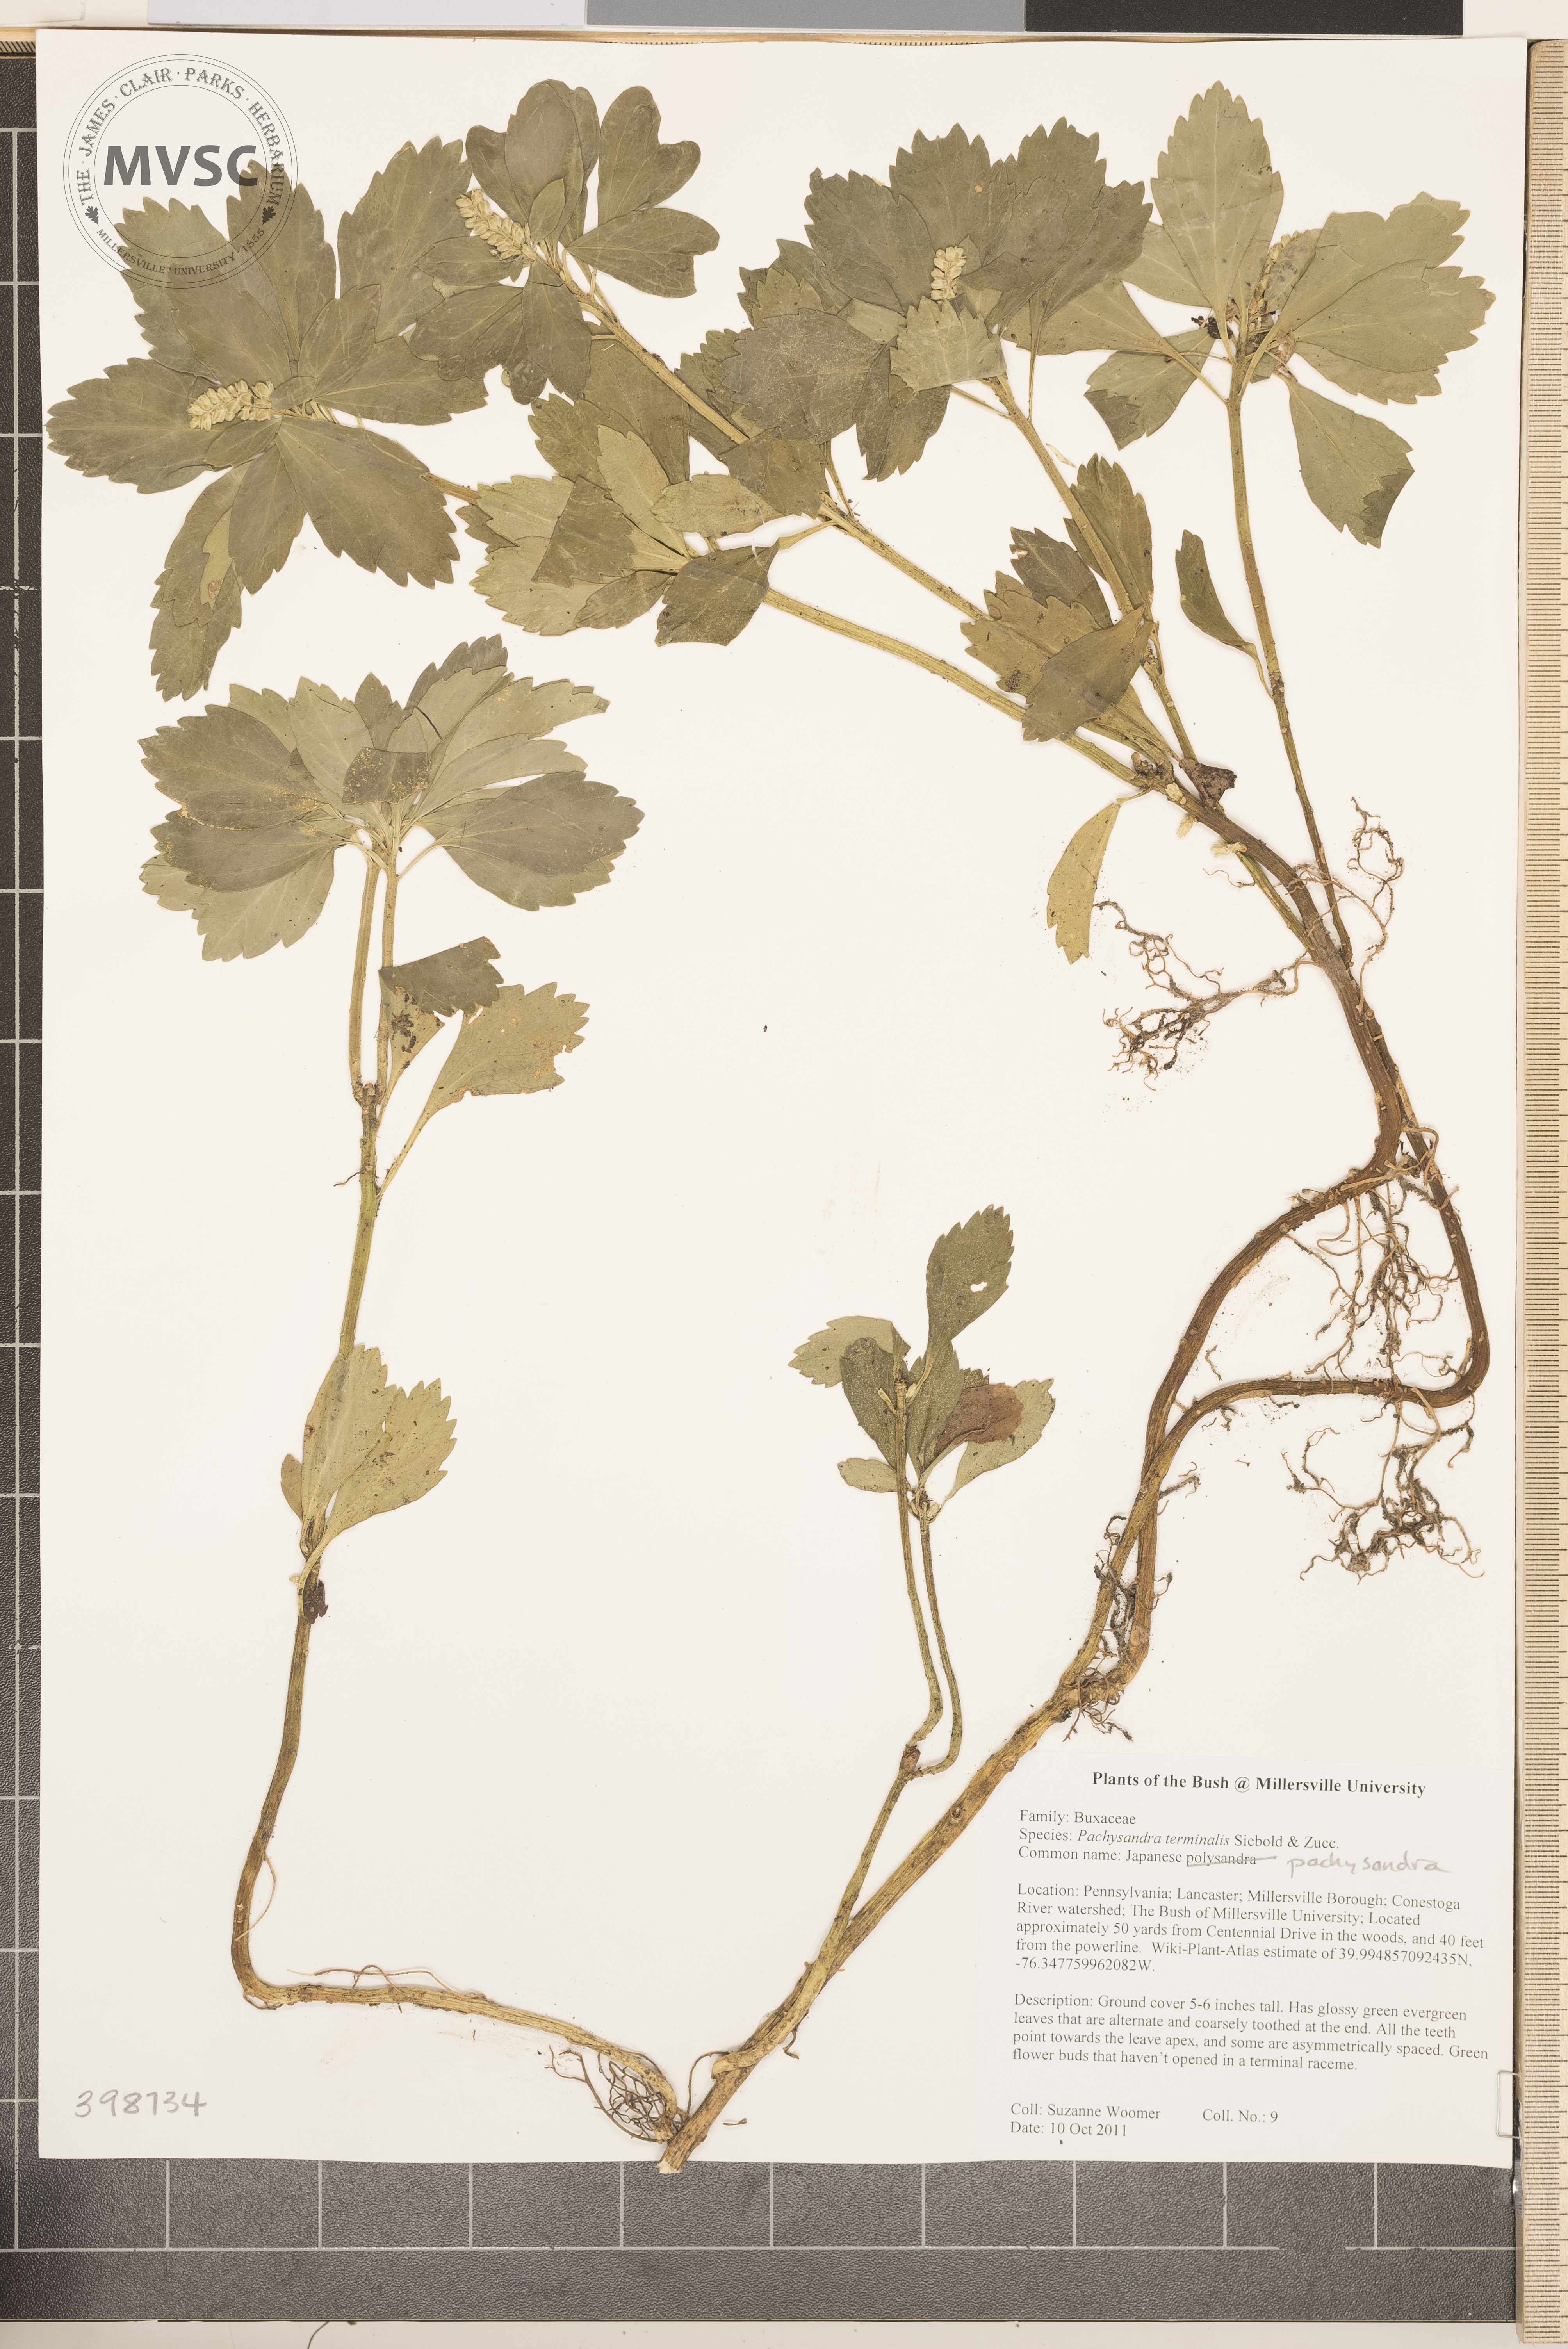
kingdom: Plantae
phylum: Tracheophyta
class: Magnoliopsida
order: Buxales
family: Buxaceae
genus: Pachysandra
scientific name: Pachysandra terminalis
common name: Japanese pachysandra
